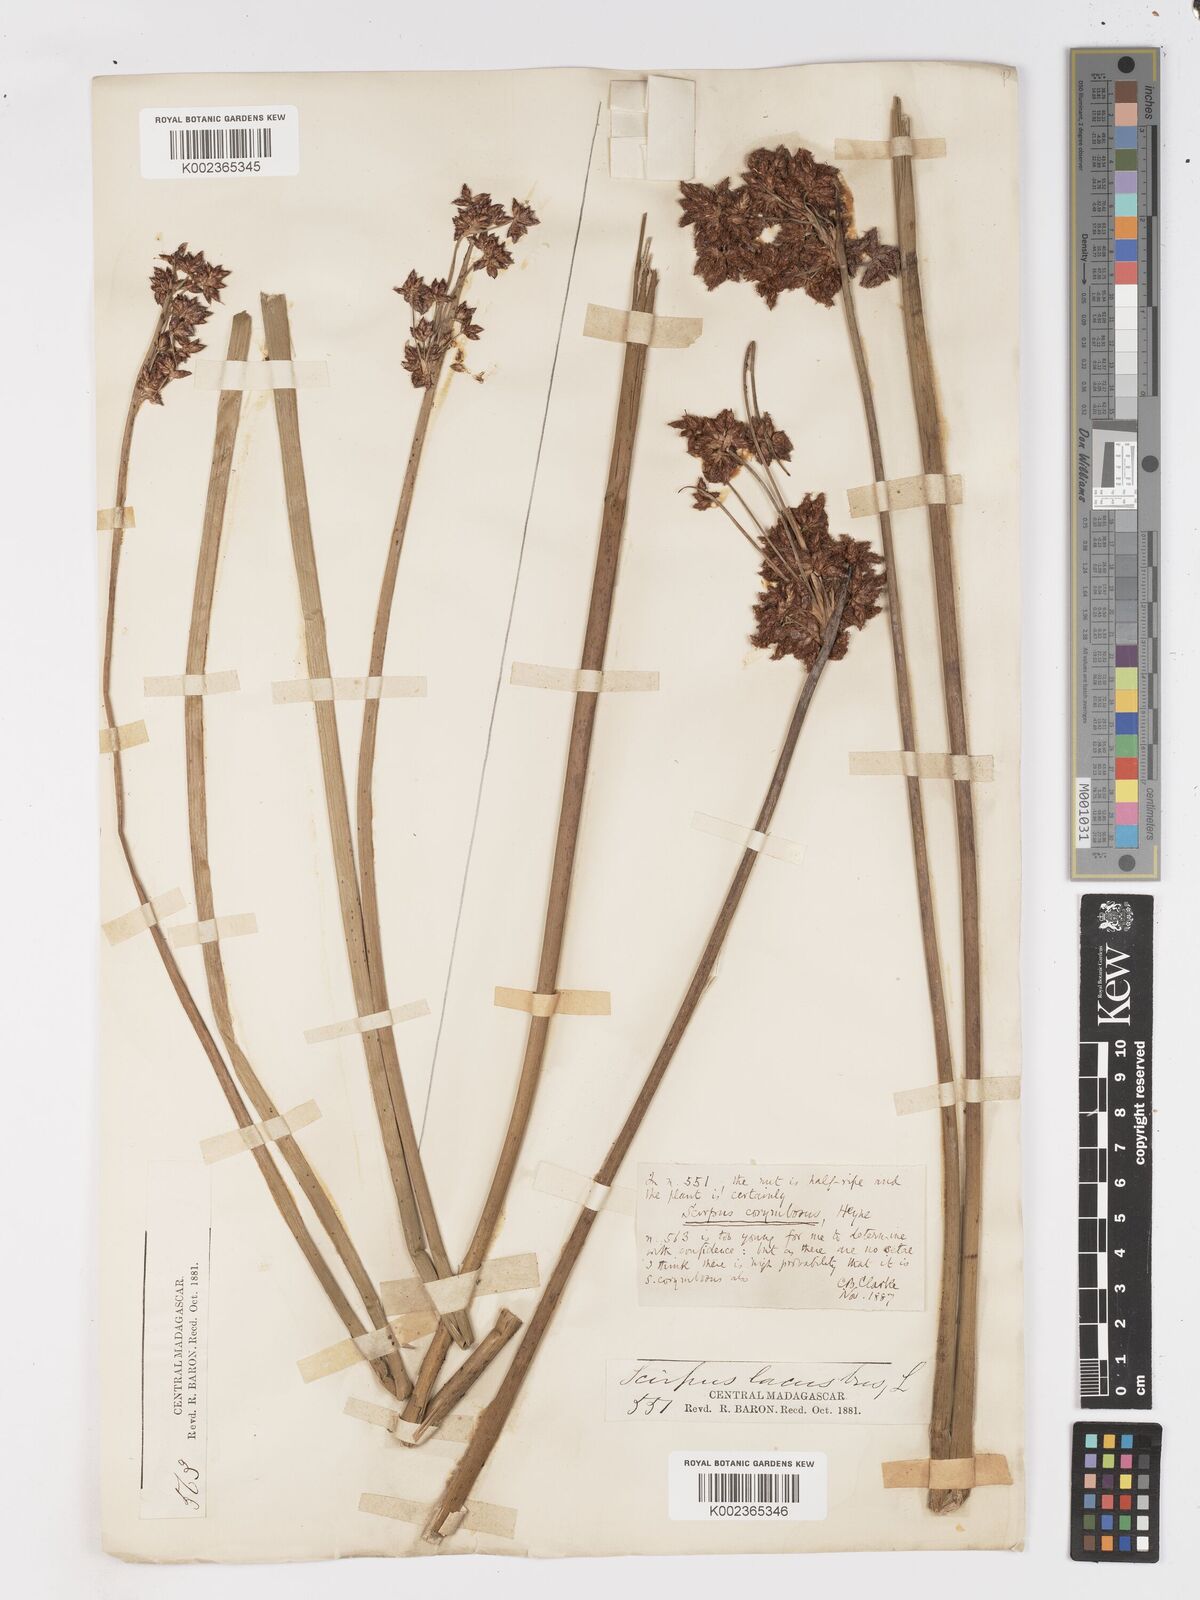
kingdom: Plantae
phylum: Tracheophyta
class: Liliopsida
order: Poales
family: Cyperaceae
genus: Schoenoplectiella
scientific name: Schoenoplectiella brachyceras
